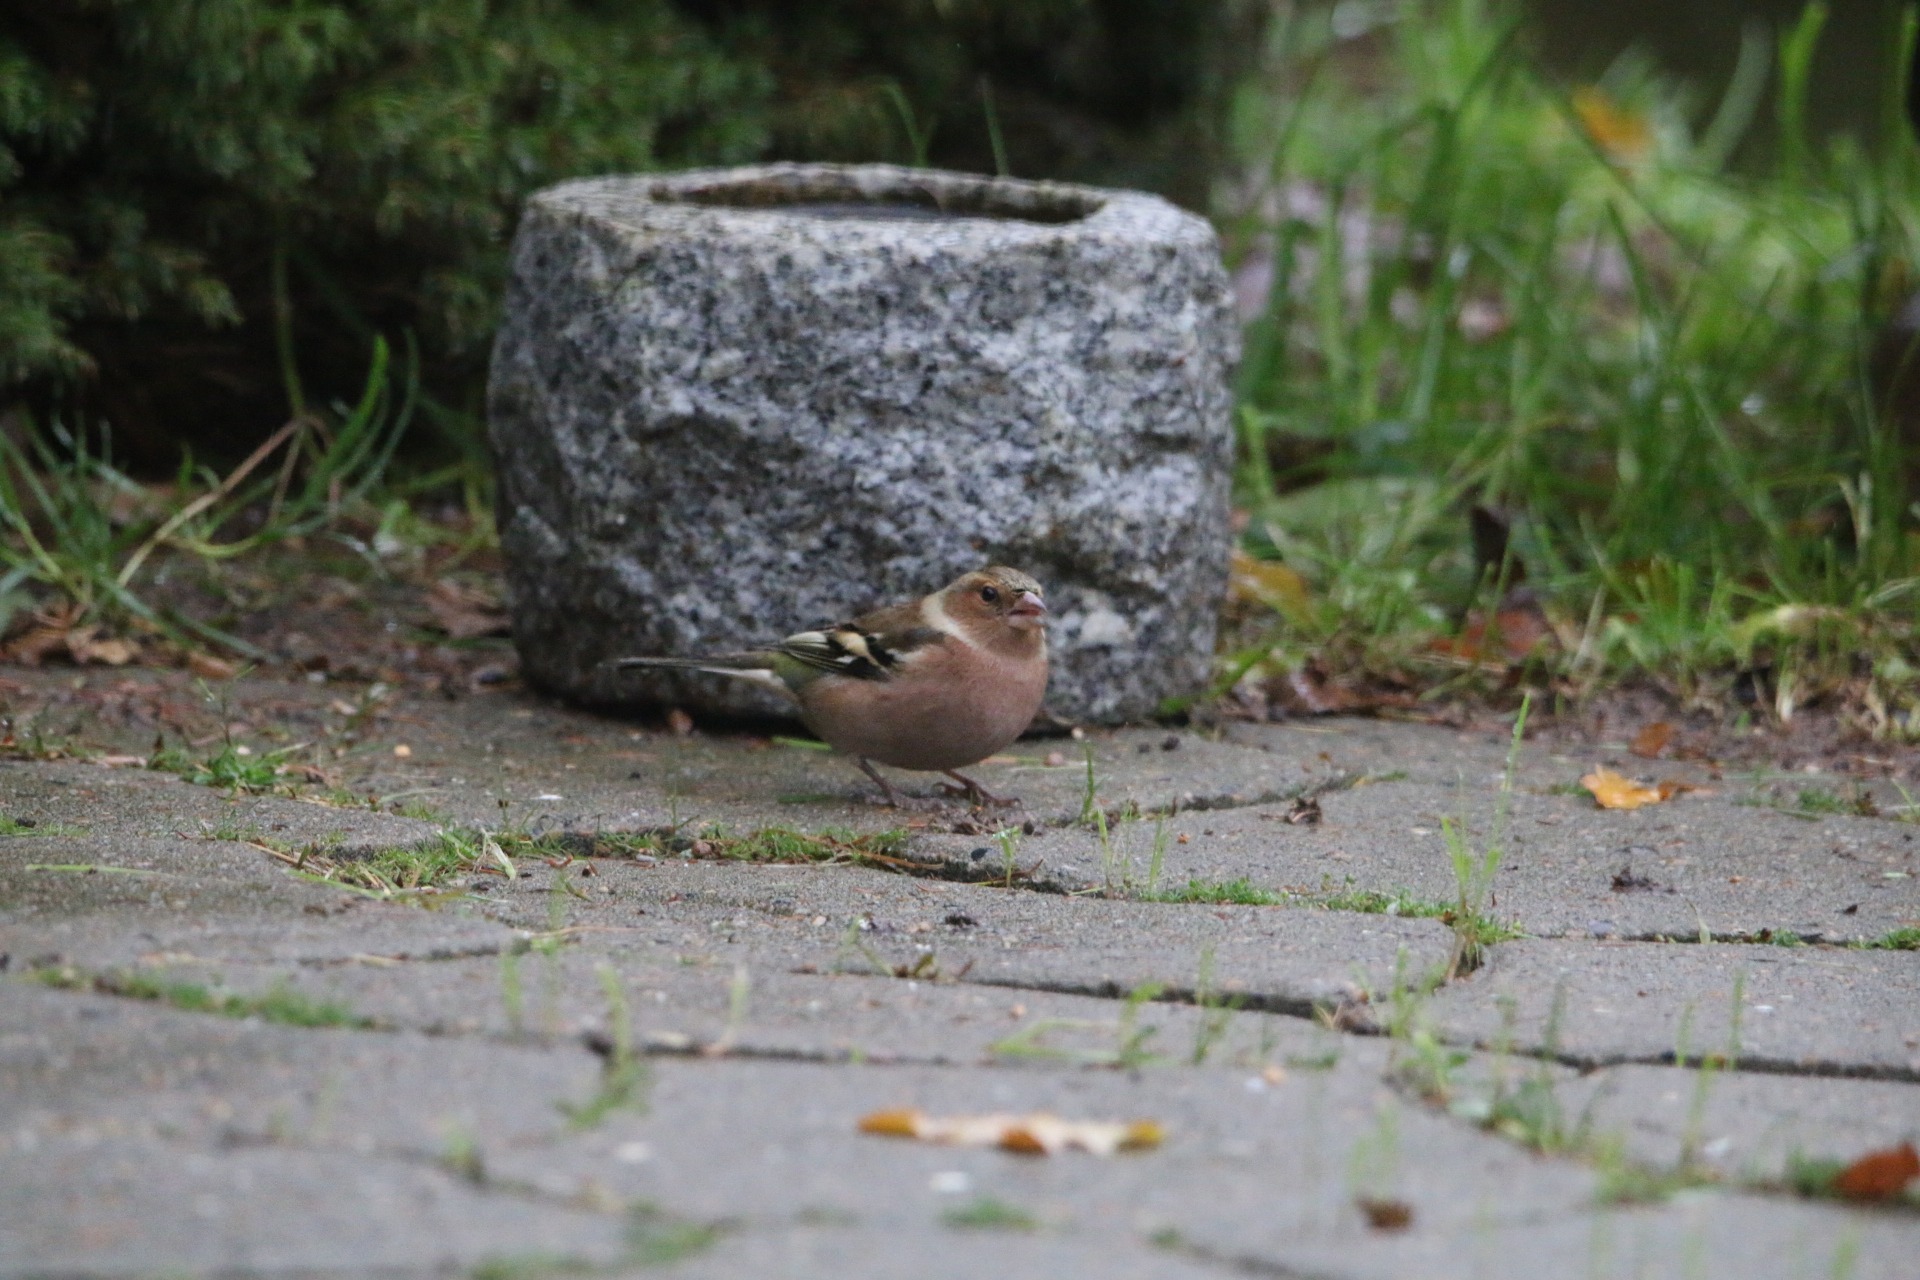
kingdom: Animalia
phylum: Chordata
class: Aves
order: Passeriformes
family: Fringillidae
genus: Fringilla
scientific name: Fringilla coelebs
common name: Bogfinke
